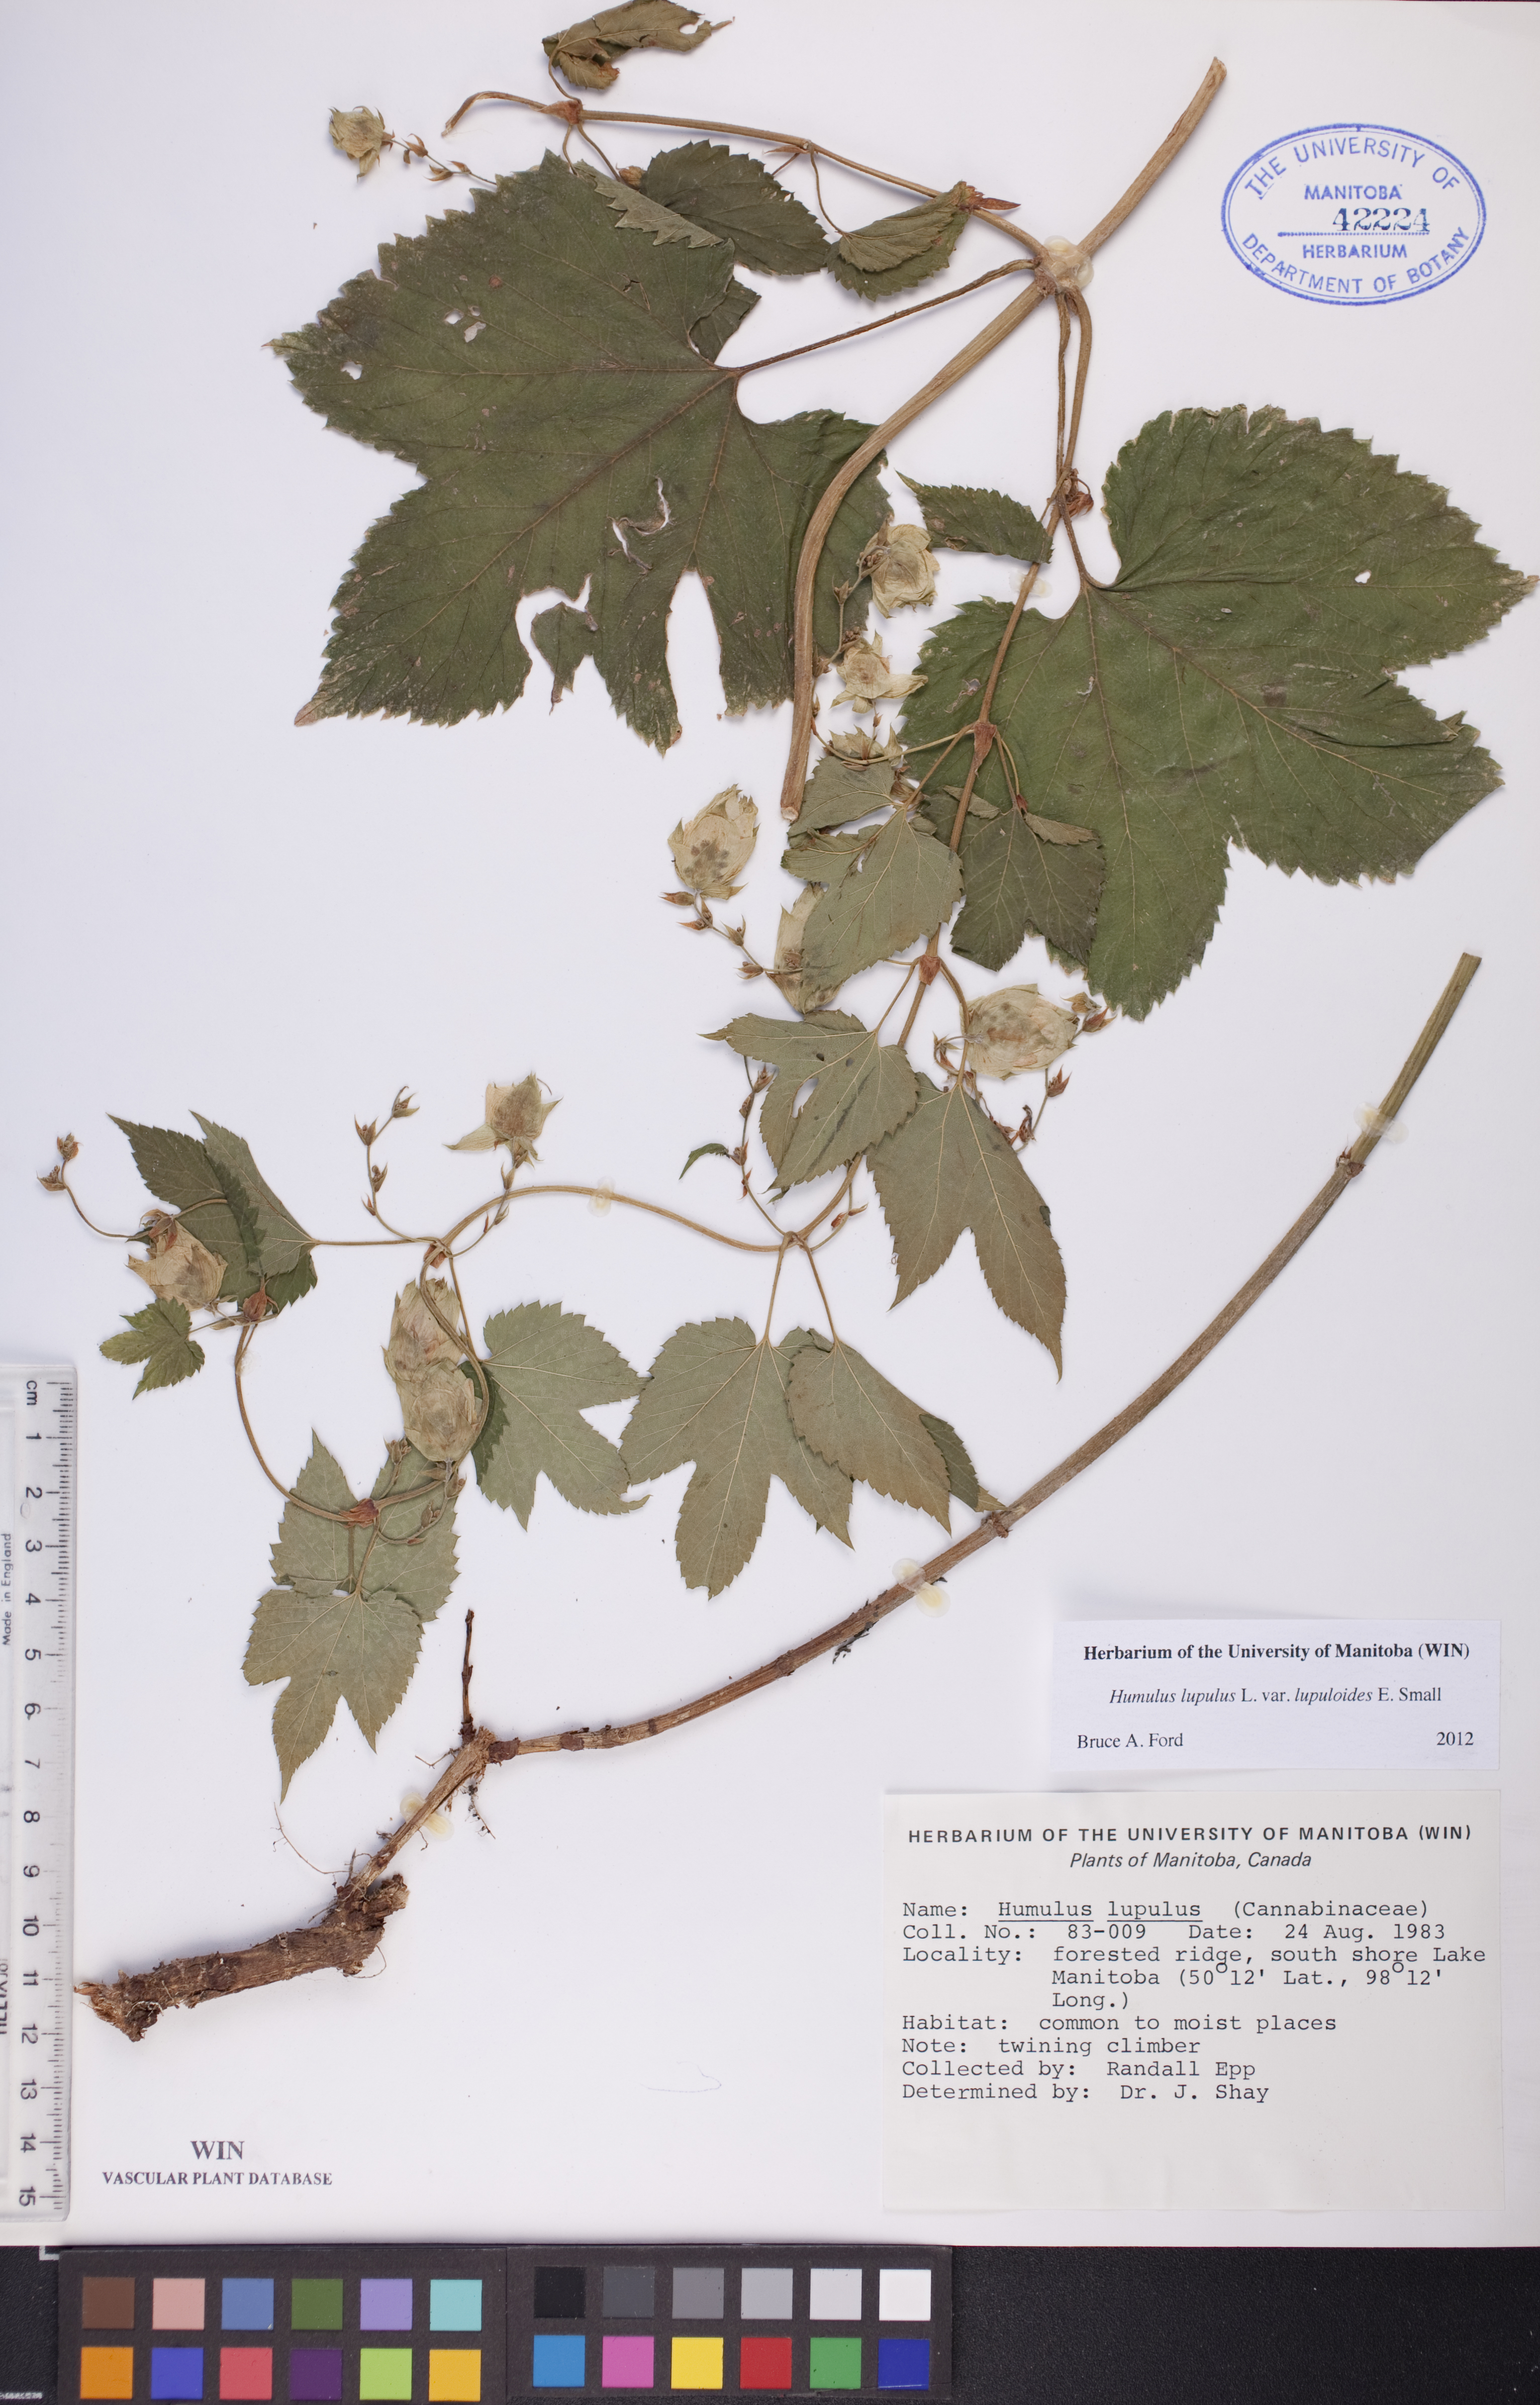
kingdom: Plantae
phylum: Tracheophyta
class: Magnoliopsida
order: Rosales
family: Cannabaceae
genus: Humulus
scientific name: Humulus americanus
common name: American hops
